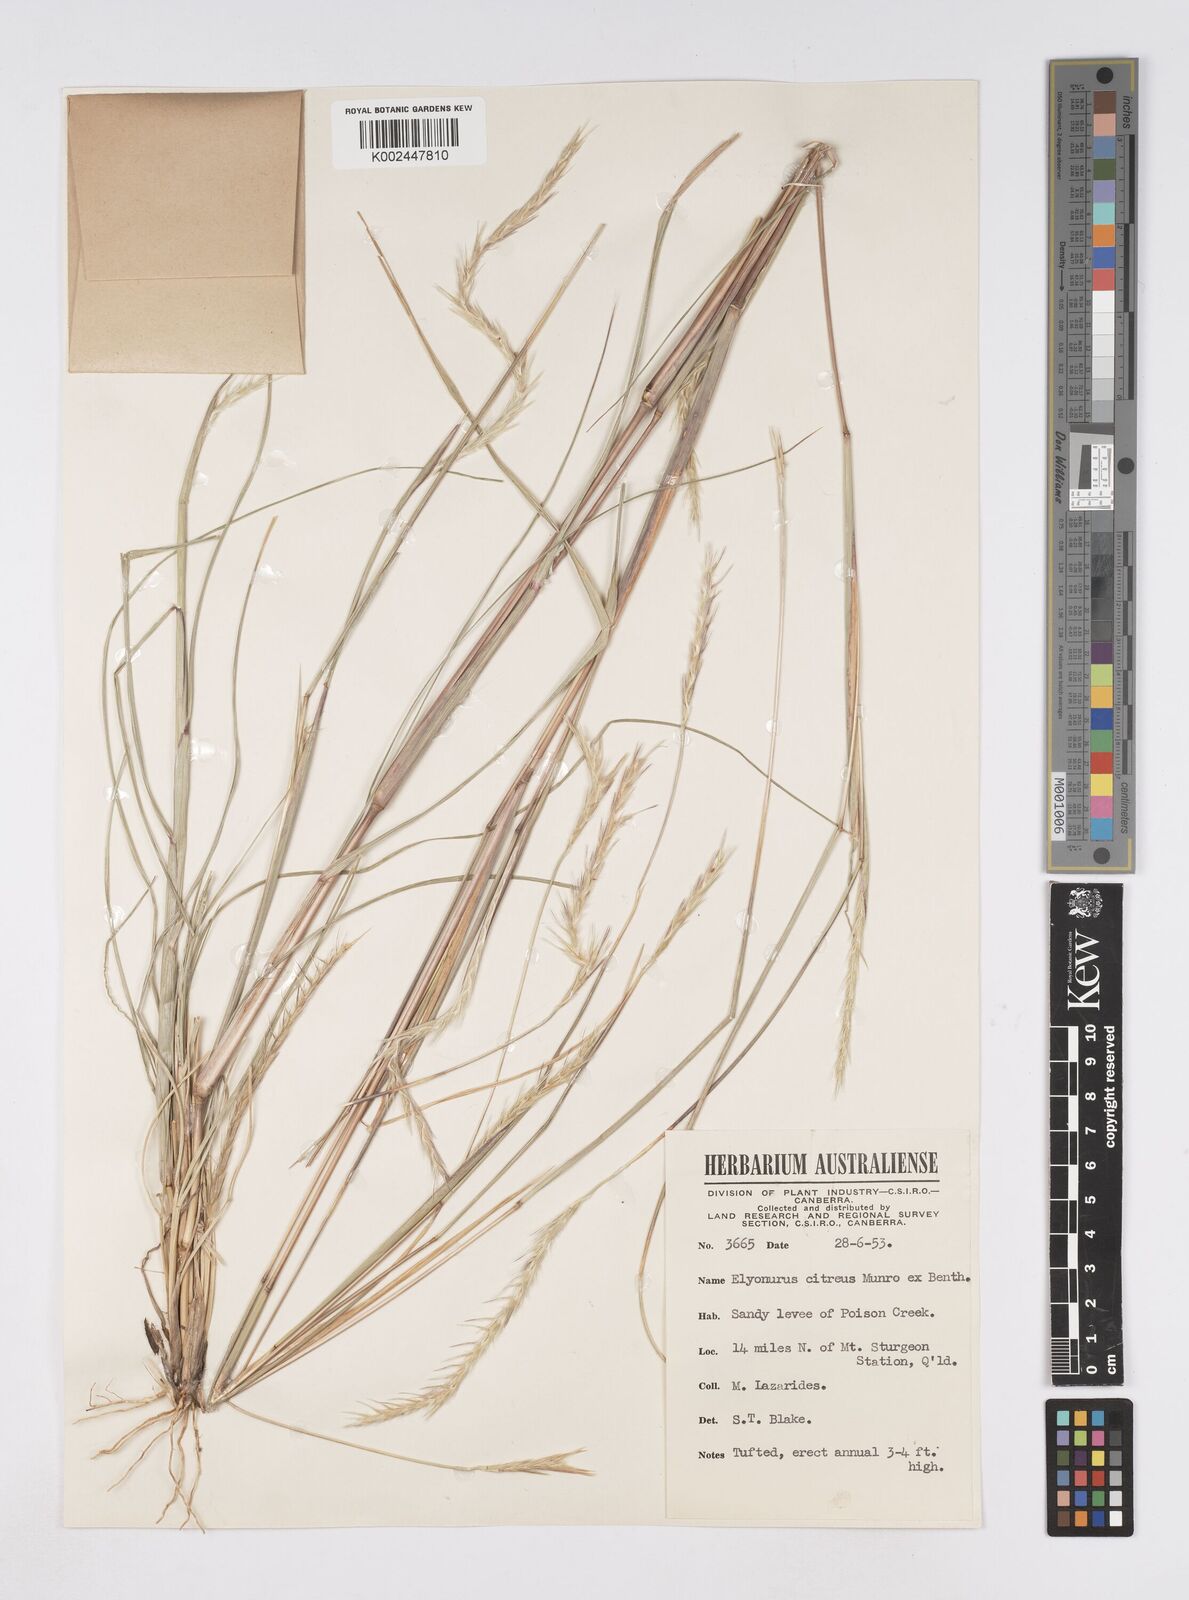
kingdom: Plantae
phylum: Tracheophyta
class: Liliopsida
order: Poales
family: Poaceae
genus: Elionurus
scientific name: Elionurus citreus
